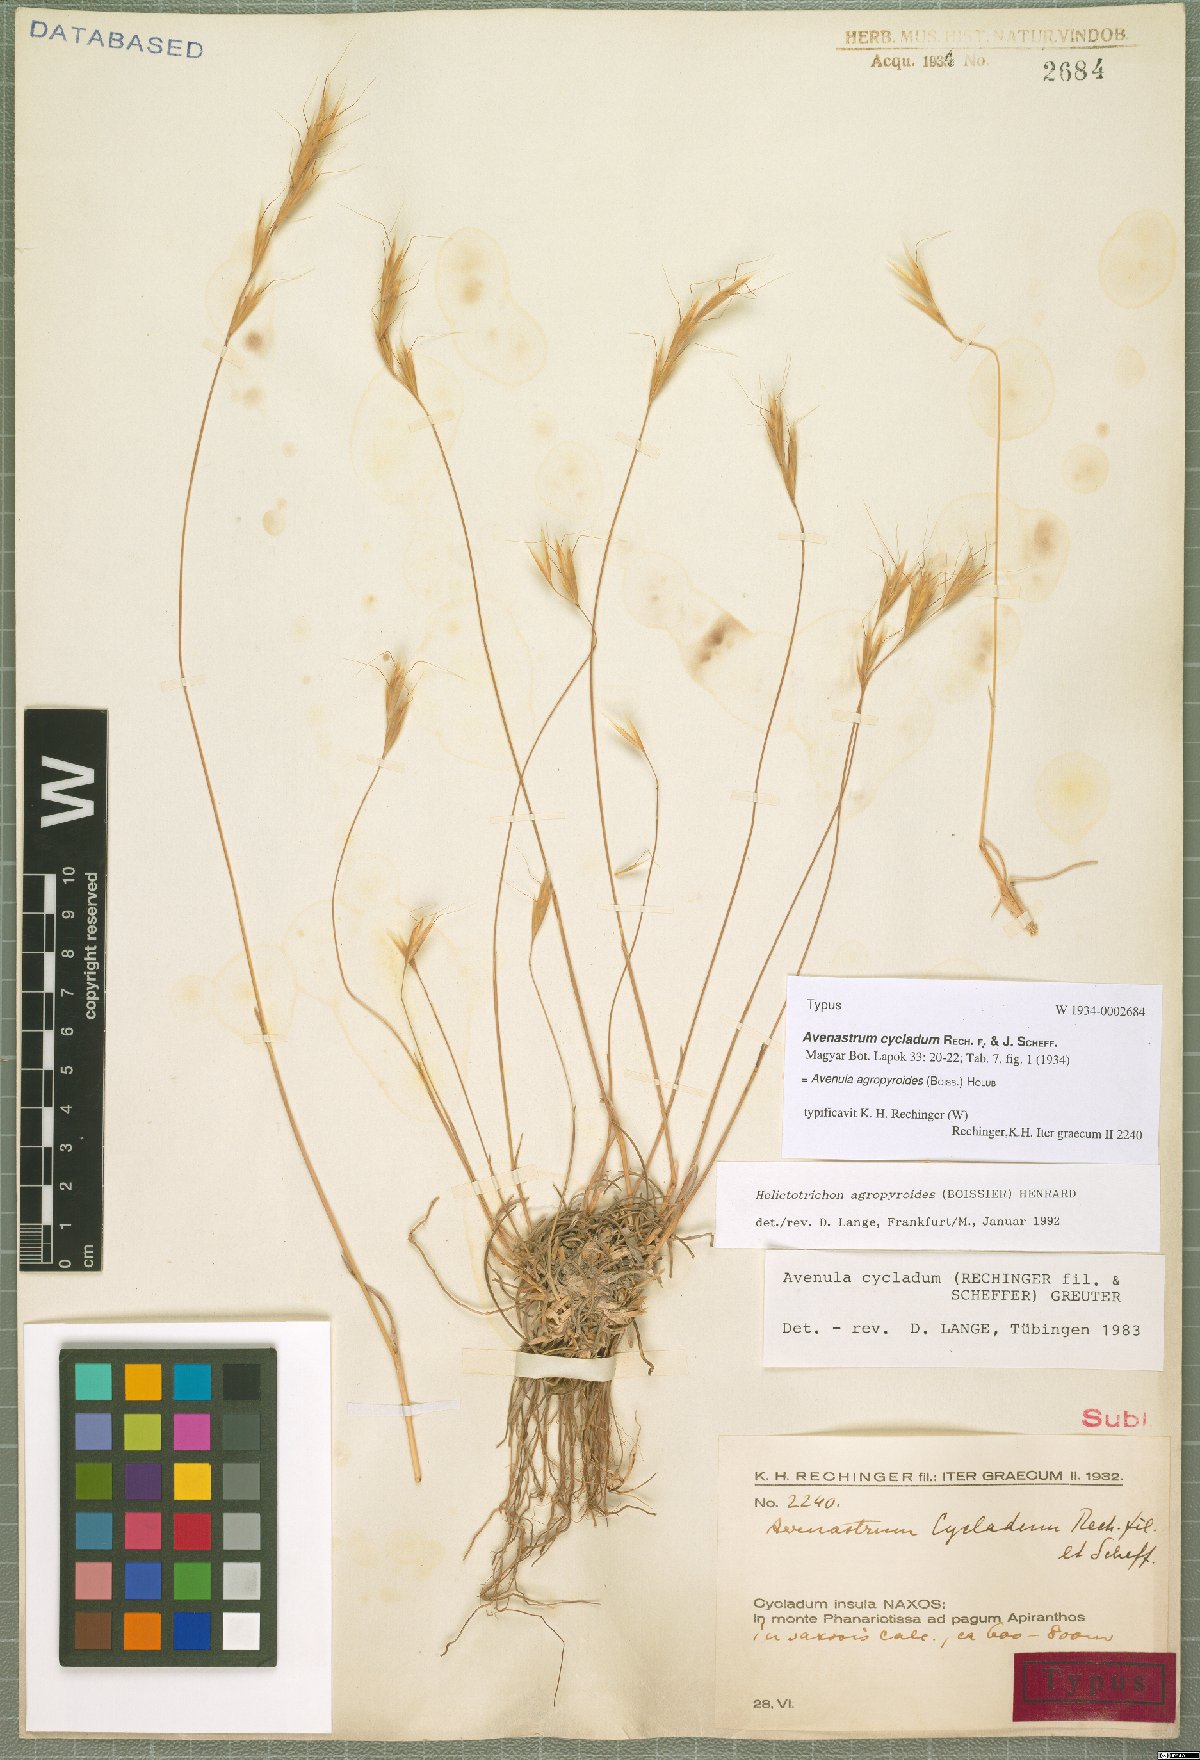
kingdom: Plantae
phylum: Tracheophyta
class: Liliopsida
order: Poales
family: Poaceae
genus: Helictochloa
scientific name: Helictochloa agropyroides
